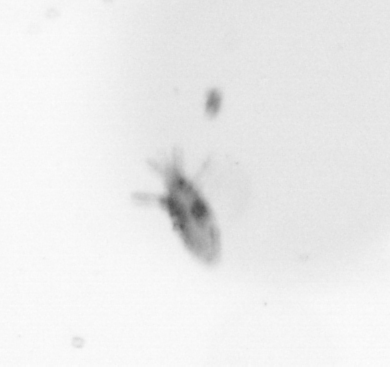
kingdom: Animalia
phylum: Arthropoda
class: Copepoda
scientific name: Copepoda
